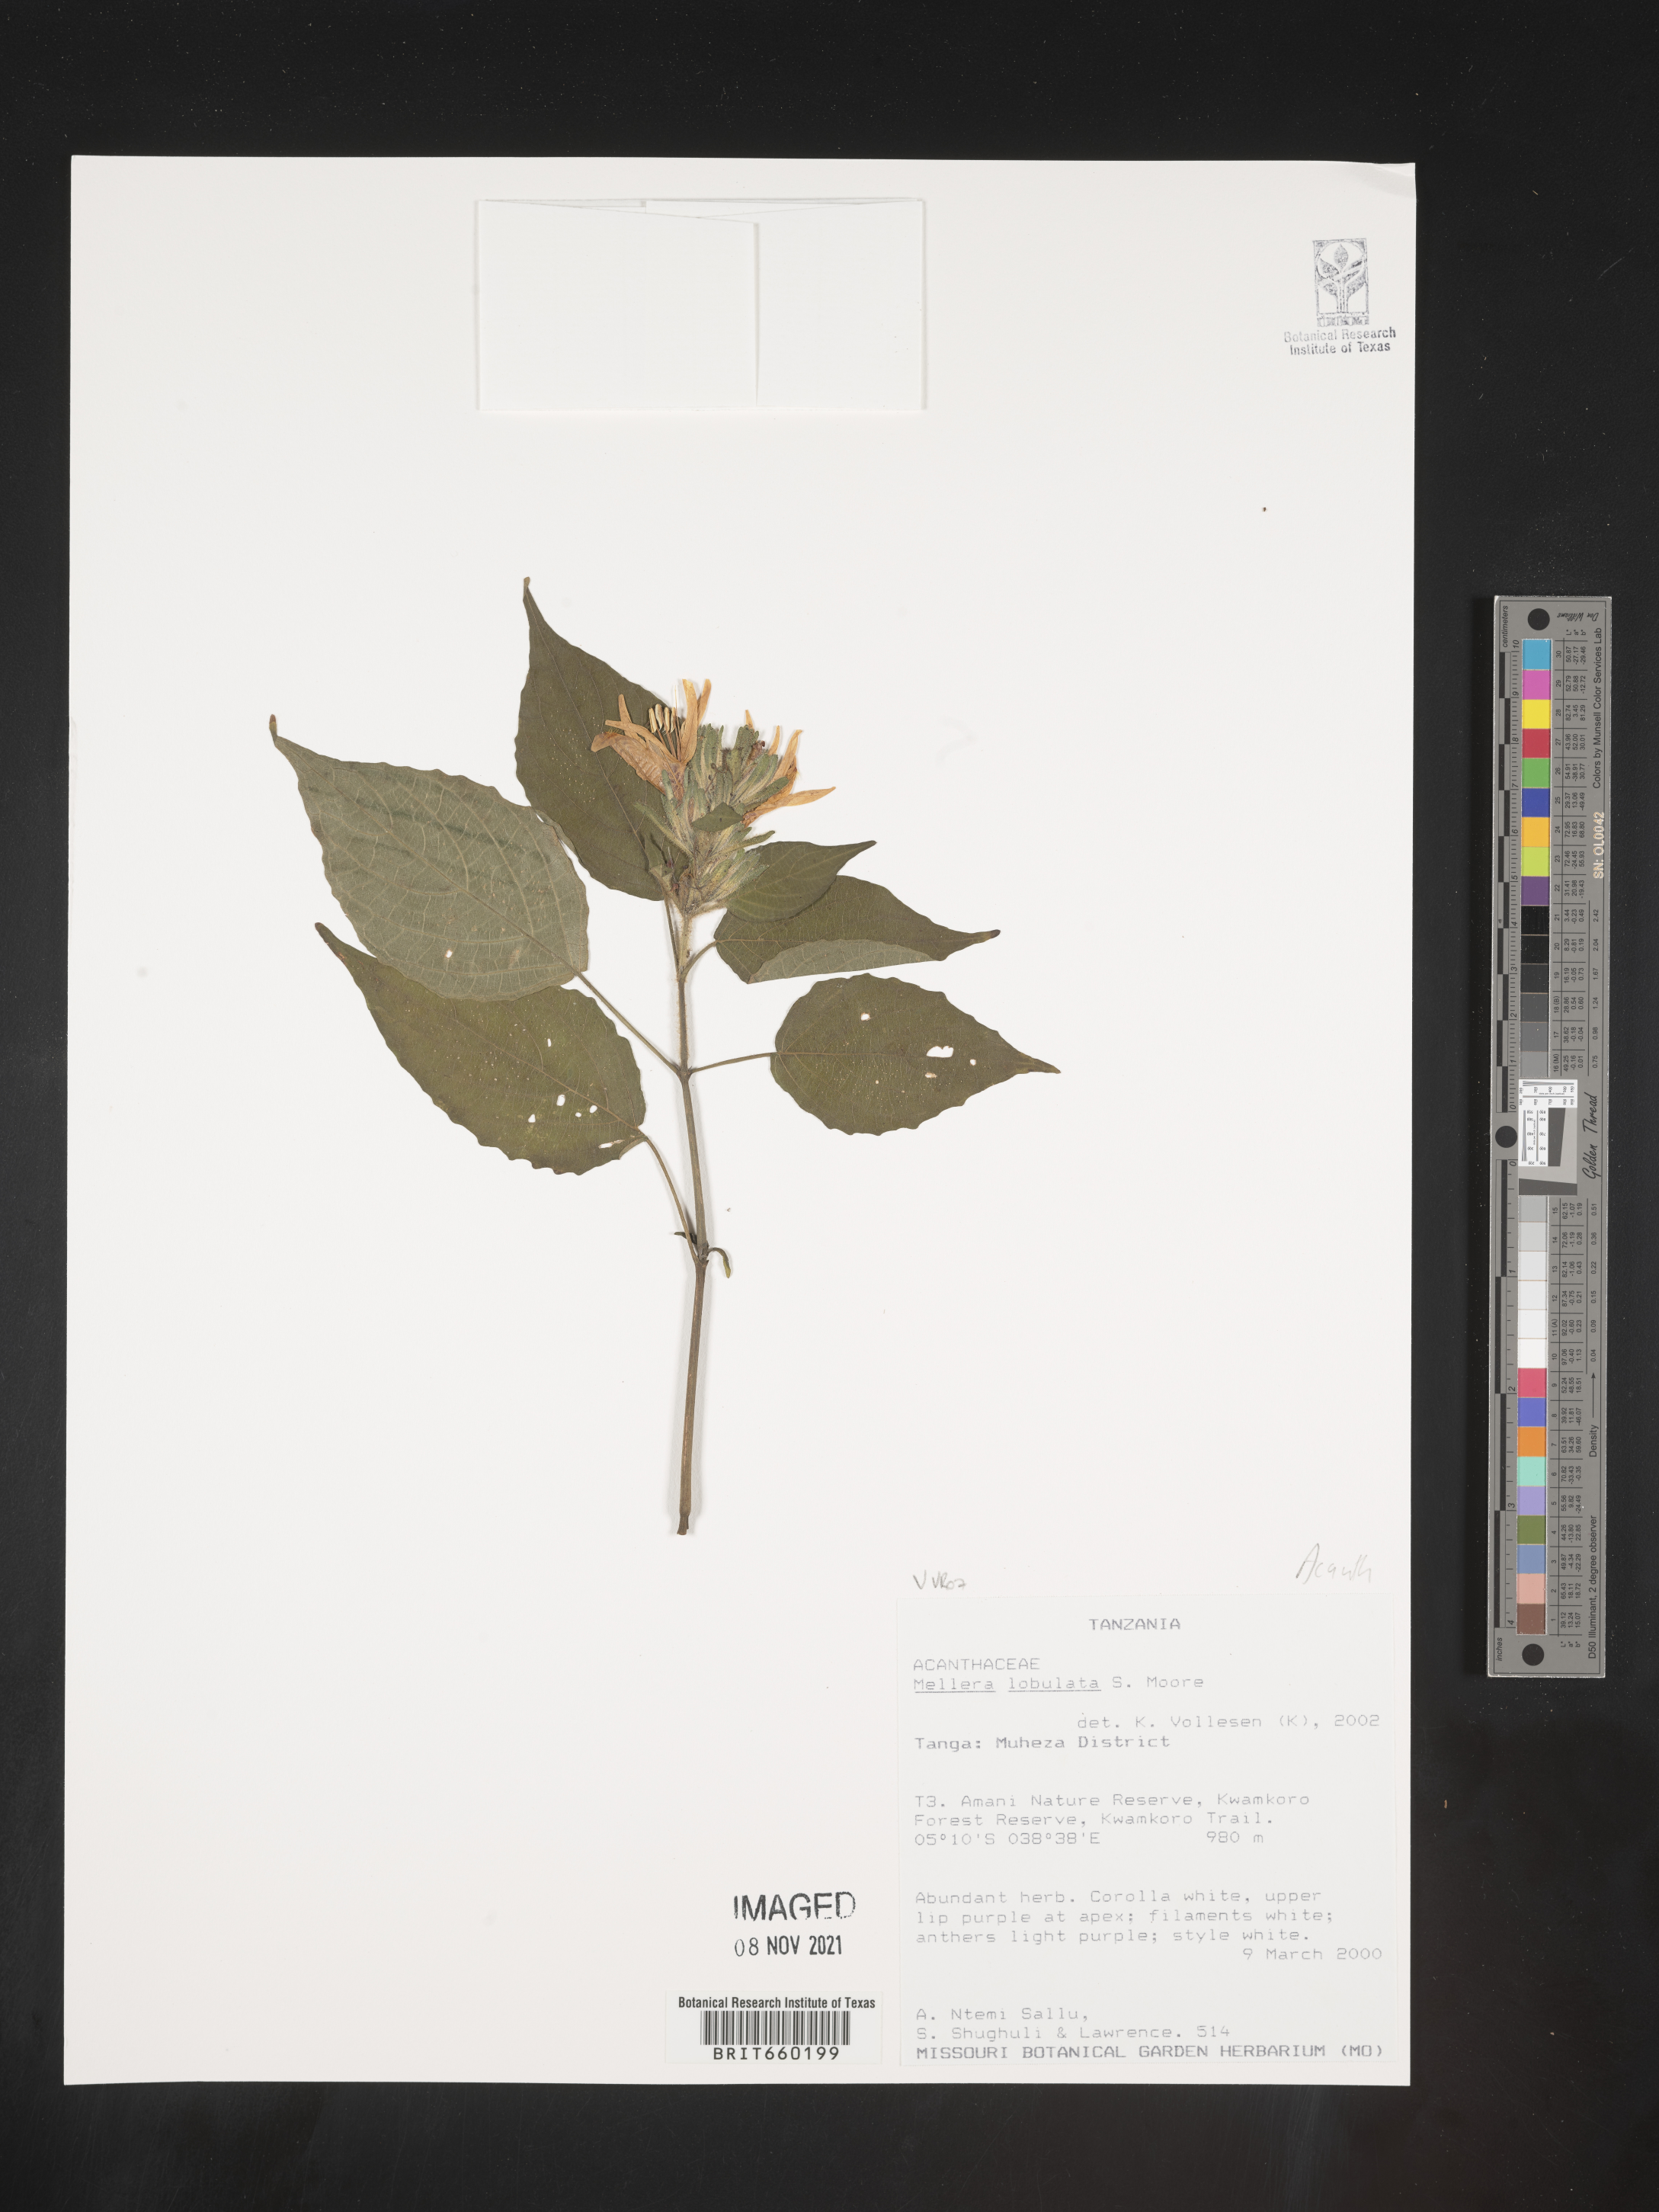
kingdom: Plantae
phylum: Tracheophyta
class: Magnoliopsida
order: Lamiales
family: Acanthaceae
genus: Mellera
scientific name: Mellera
